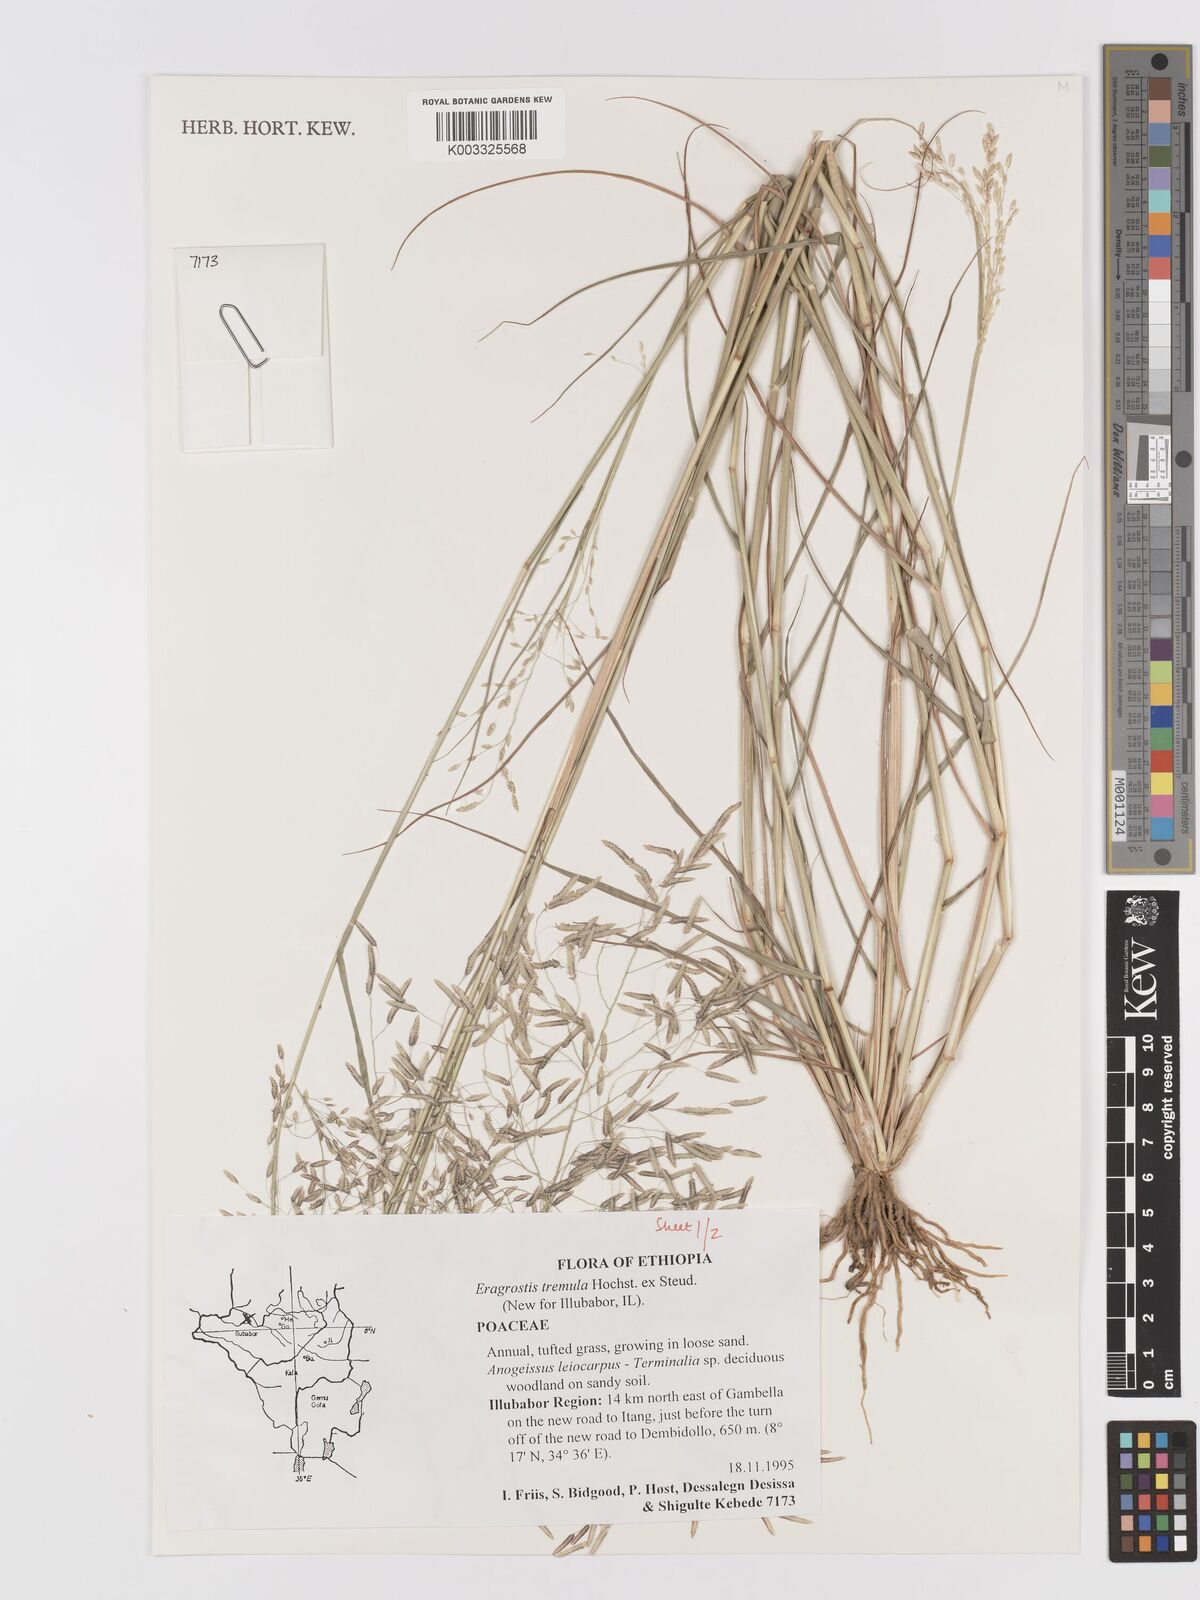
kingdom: Plantae
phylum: Tracheophyta
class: Liliopsida
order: Poales
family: Poaceae
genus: Eragrostis
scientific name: Eragrostis tremula
